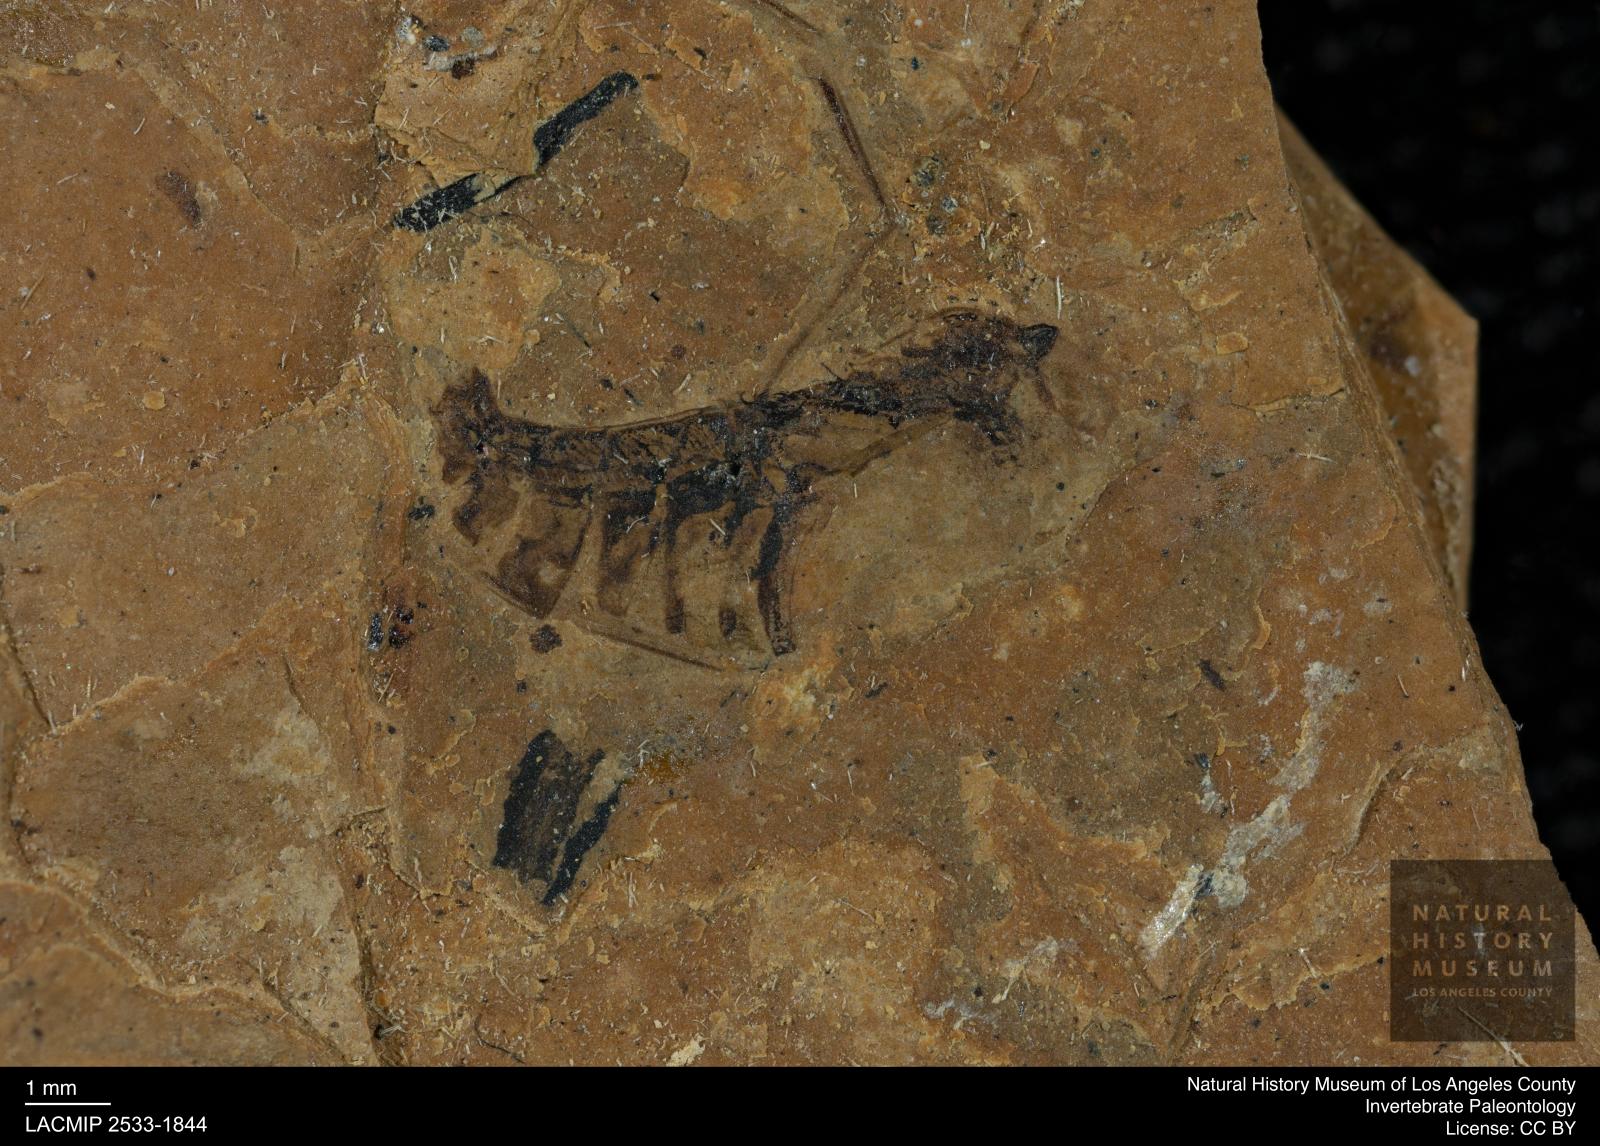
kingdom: Animalia
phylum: Arthropoda
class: Insecta
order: Hemiptera
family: Notonectidae
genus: Notonecta
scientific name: Notonecta
